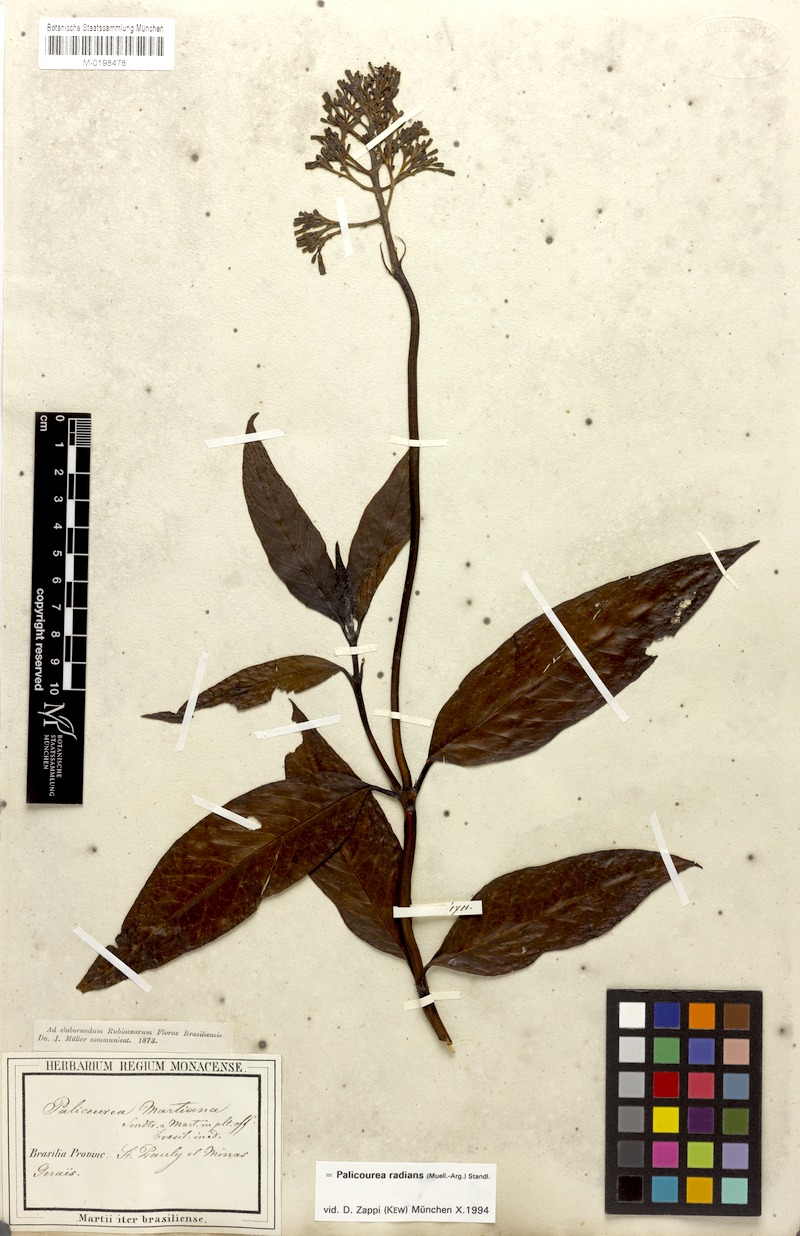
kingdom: Plantae
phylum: Tracheophyta
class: Magnoliopsida
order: Gentianales
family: Rubiaceae
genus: Palicourea
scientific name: Palicourea radians
